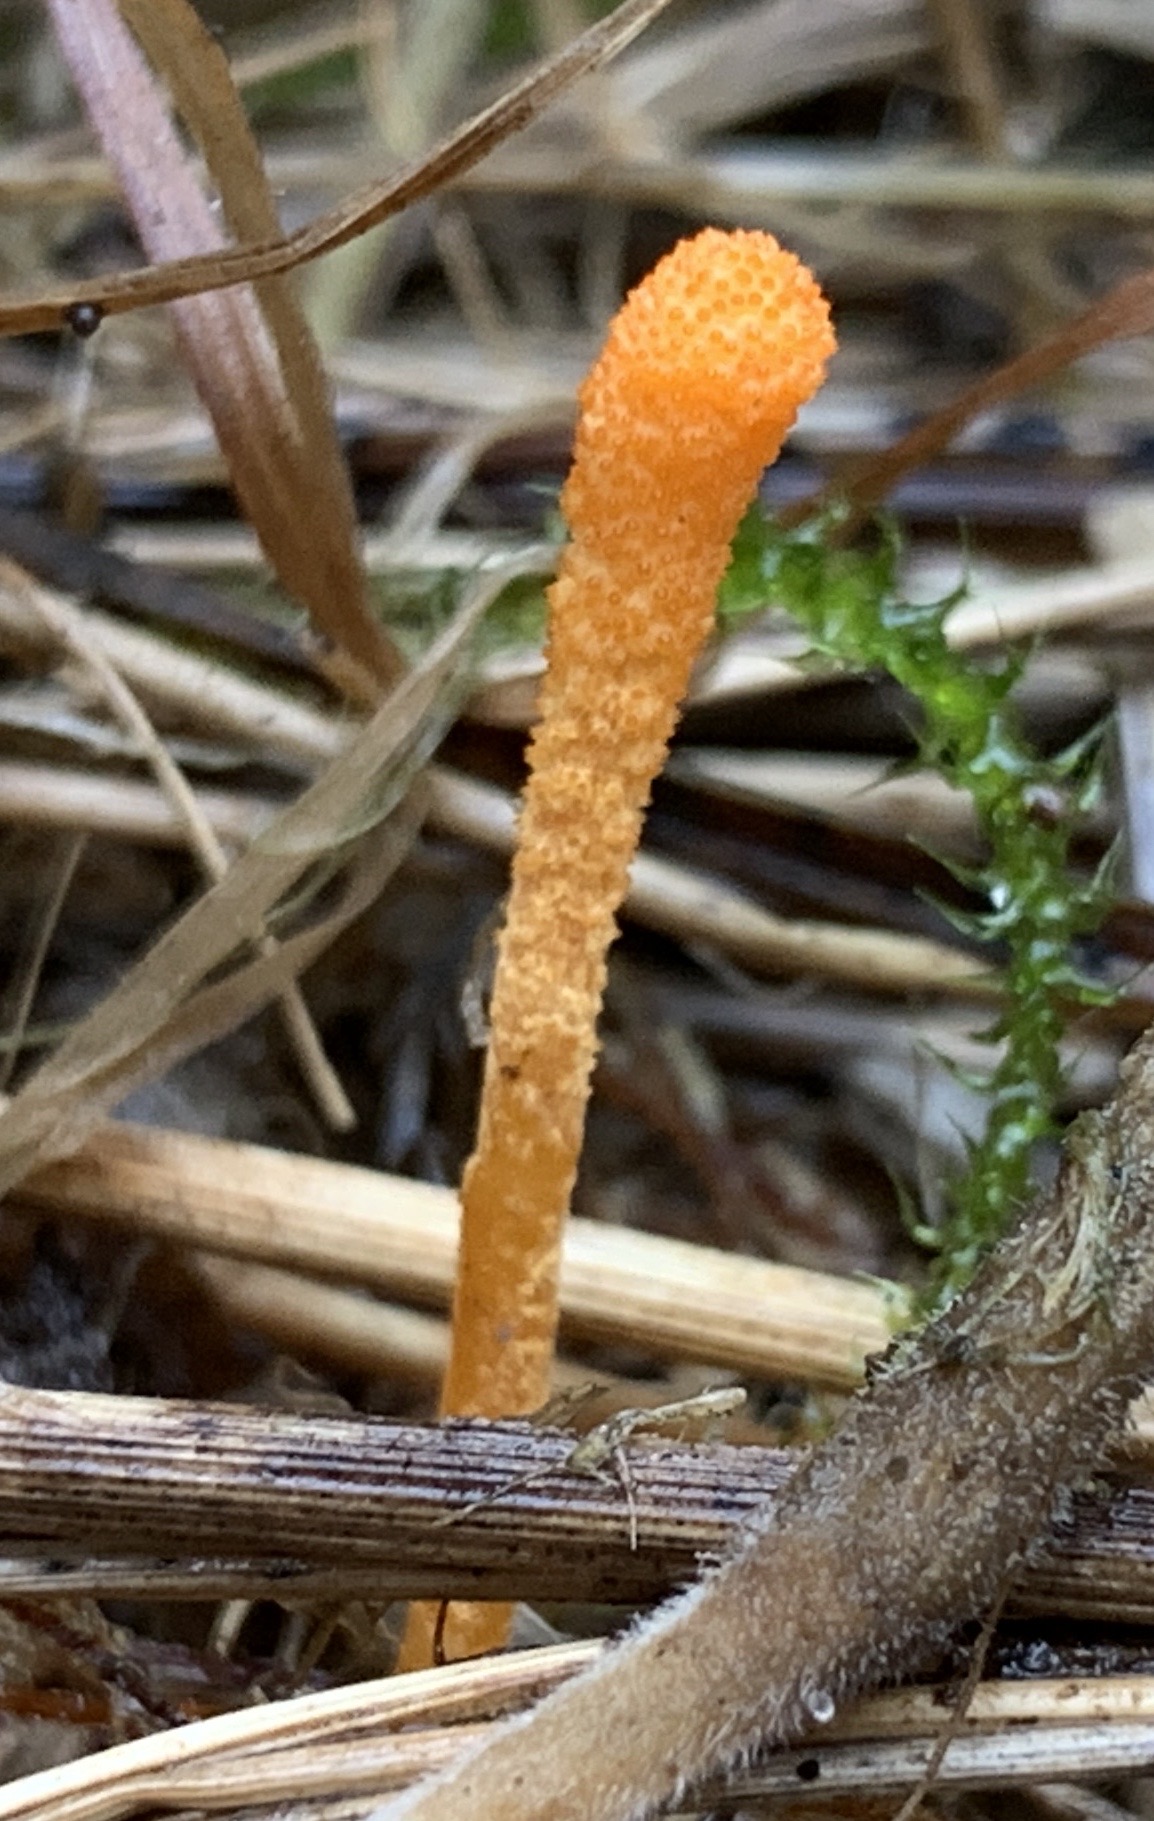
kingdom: Fungi
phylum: Ascomycota
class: Sordariomycetes
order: Hypocreales
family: Cordycipitaceae
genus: Cordyceps
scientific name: Cordyceps militaris
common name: puppe-snyltekølle
